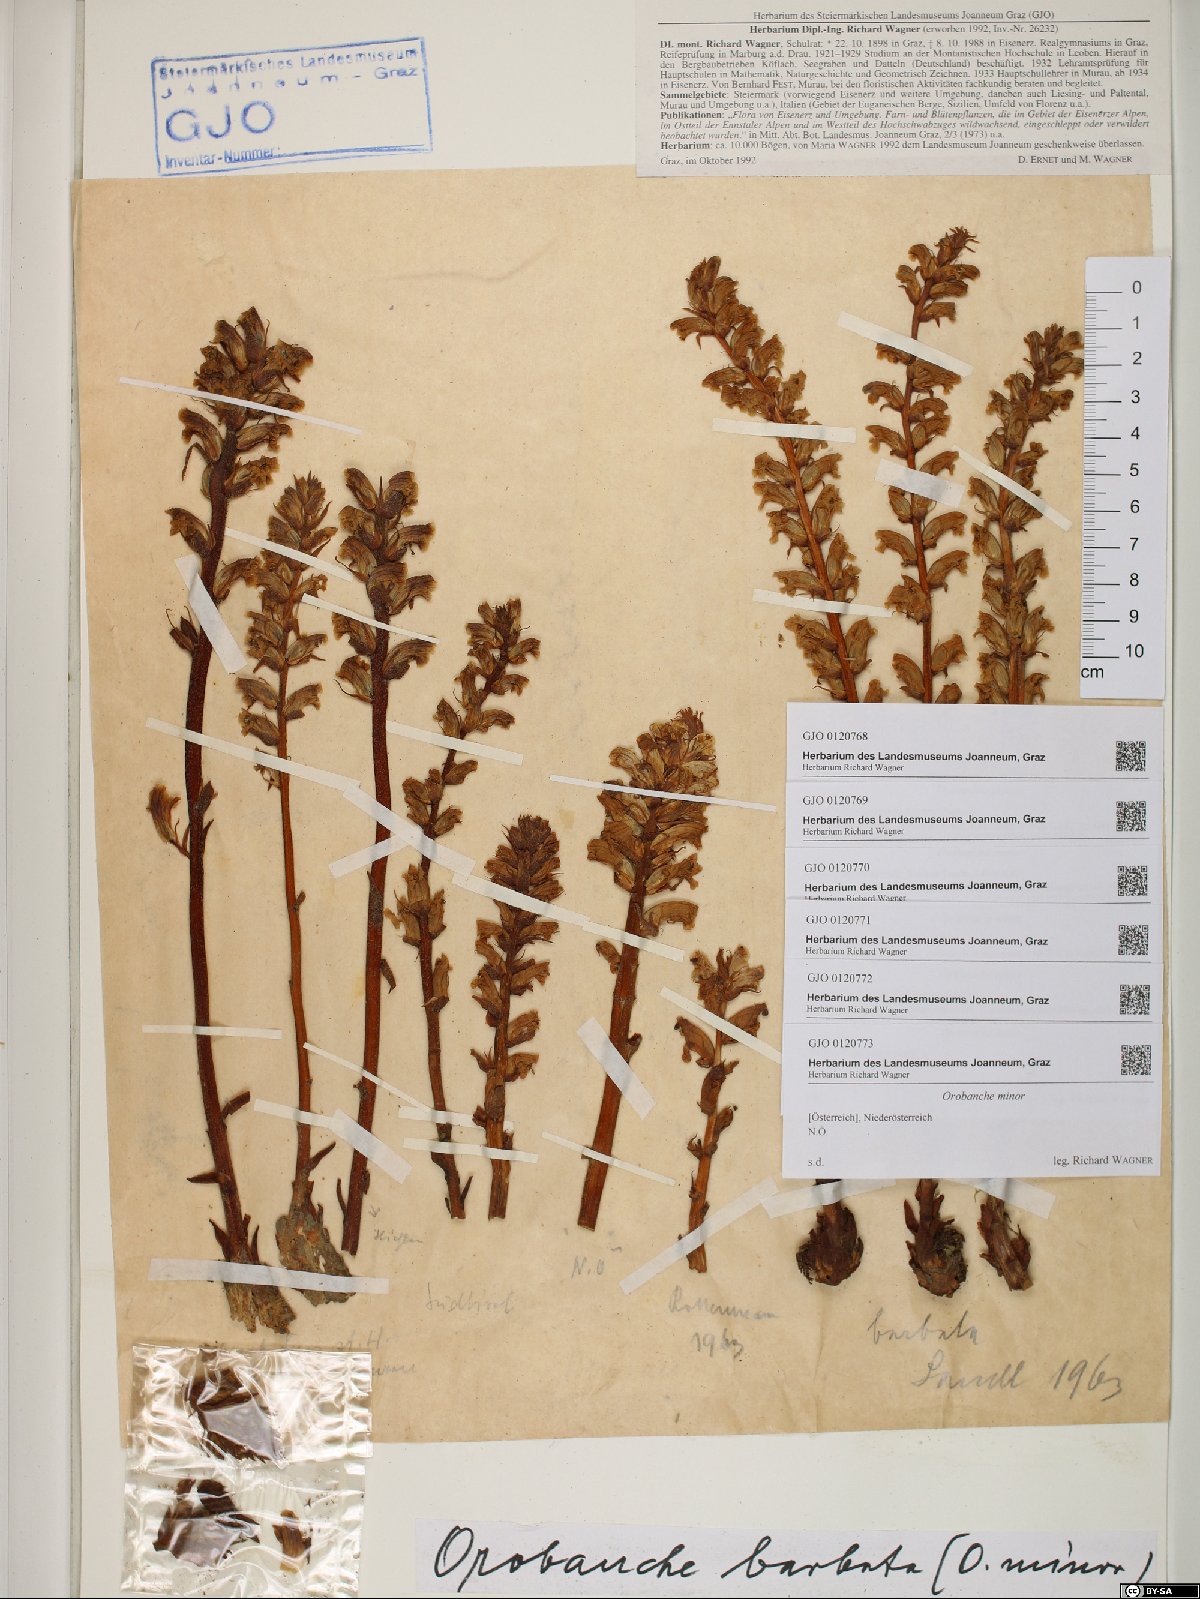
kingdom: Plantae
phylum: Tracheophyta
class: Magnoliopsida
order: Lamiales
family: Orobanchaceae
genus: Orobanche
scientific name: Orobanche minor
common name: Common broomrape
